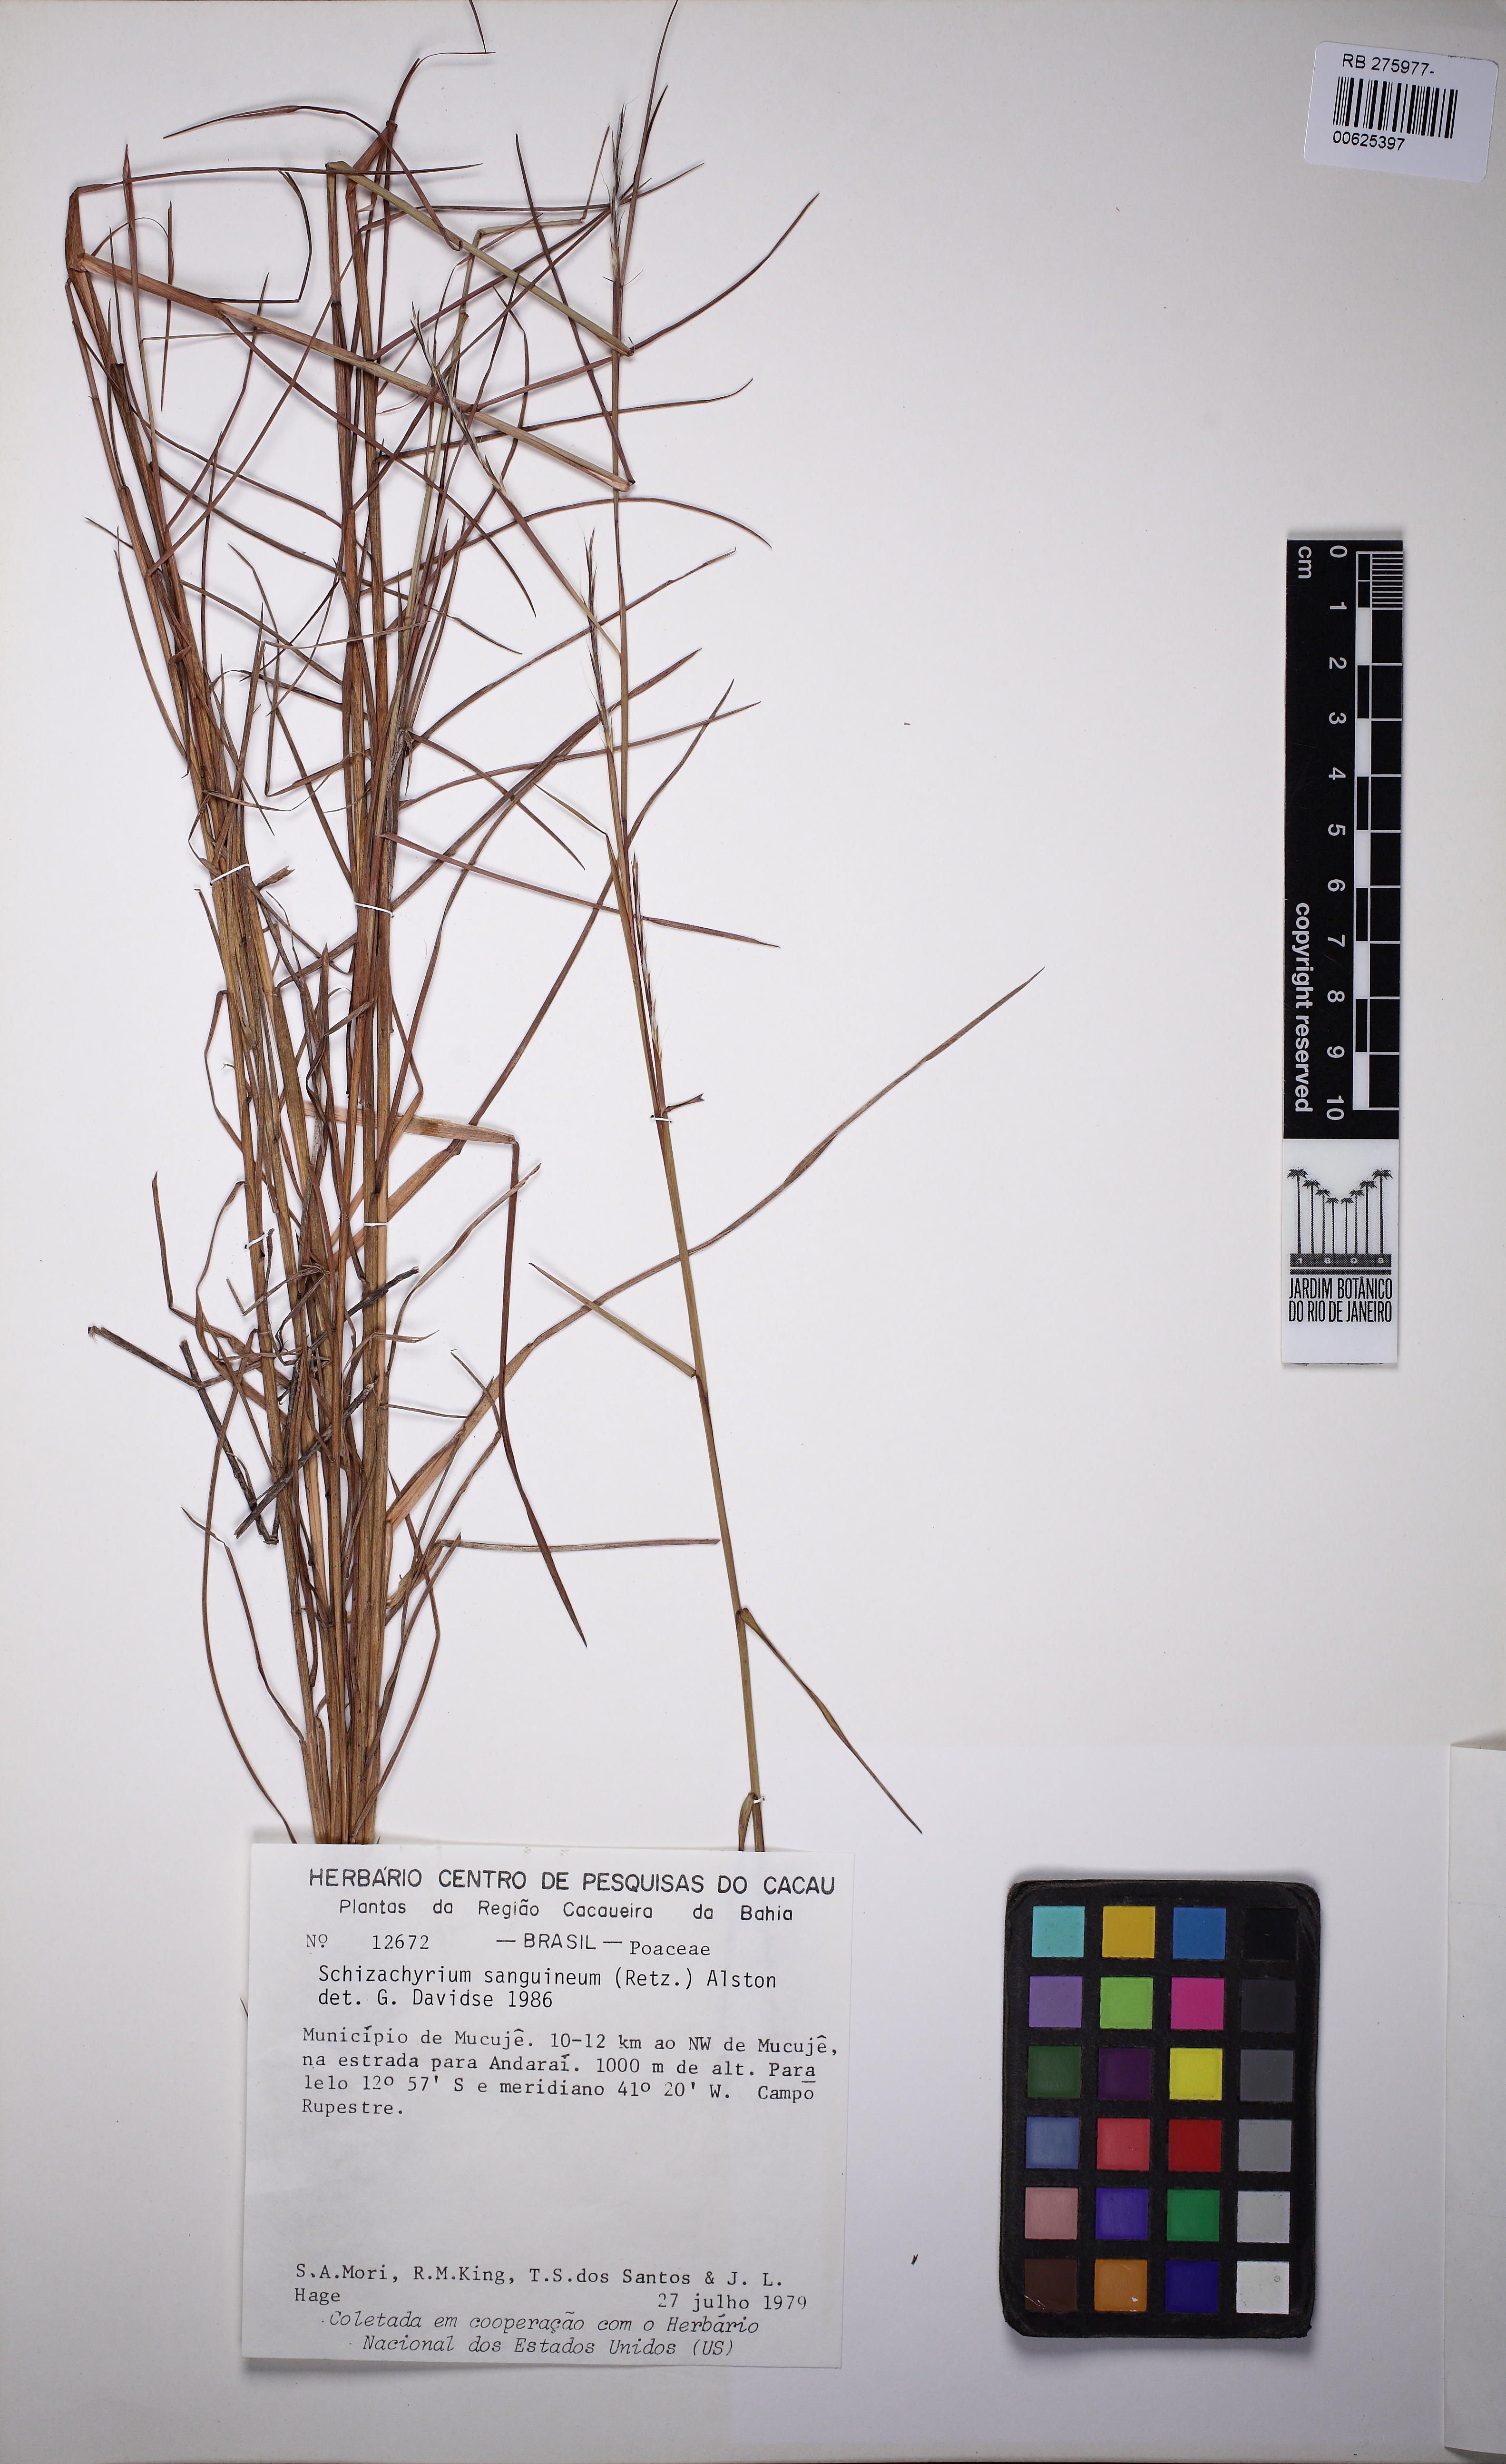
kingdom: Plantae
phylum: Tracheophyta
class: Liliopsida
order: Poales
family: Poaceae
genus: Schizachyrium
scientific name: Schizachyrium sanguineum
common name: Crimson bluestem
